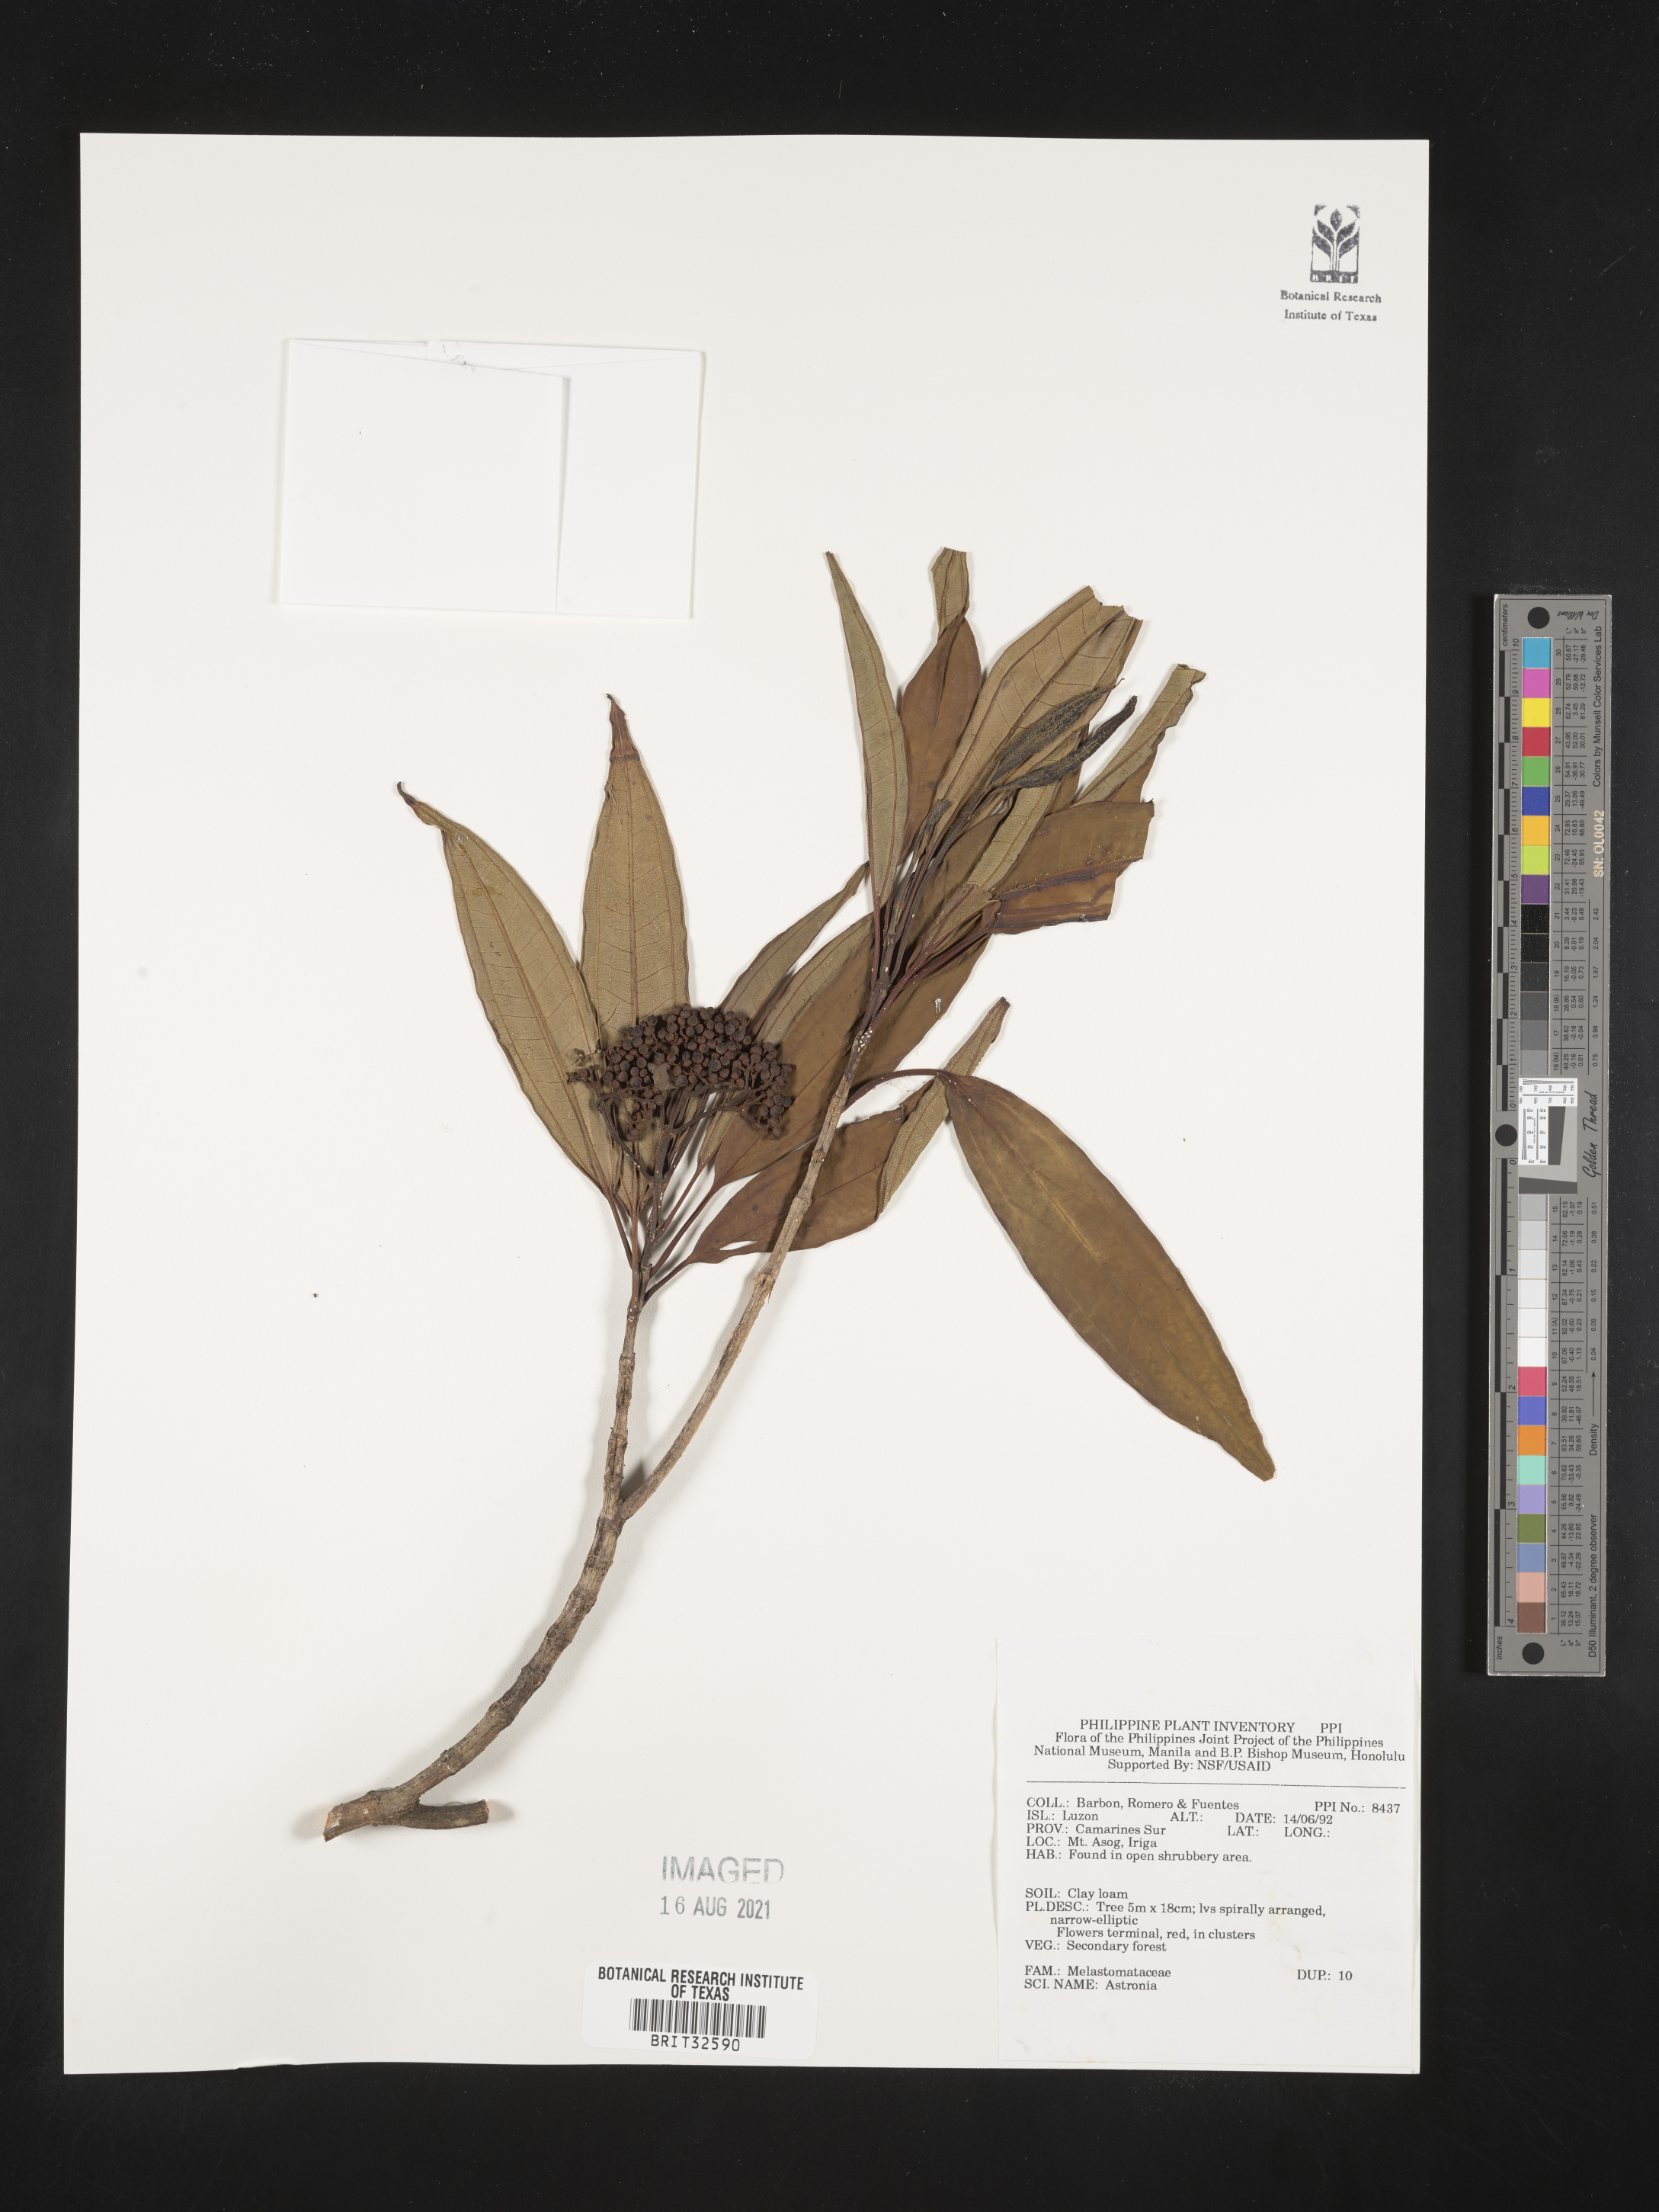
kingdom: Plantae
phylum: Tracheophyta
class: Magnoliopsida
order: Myrtales
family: Melastomataceae
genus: Astronia
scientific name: Astronia
